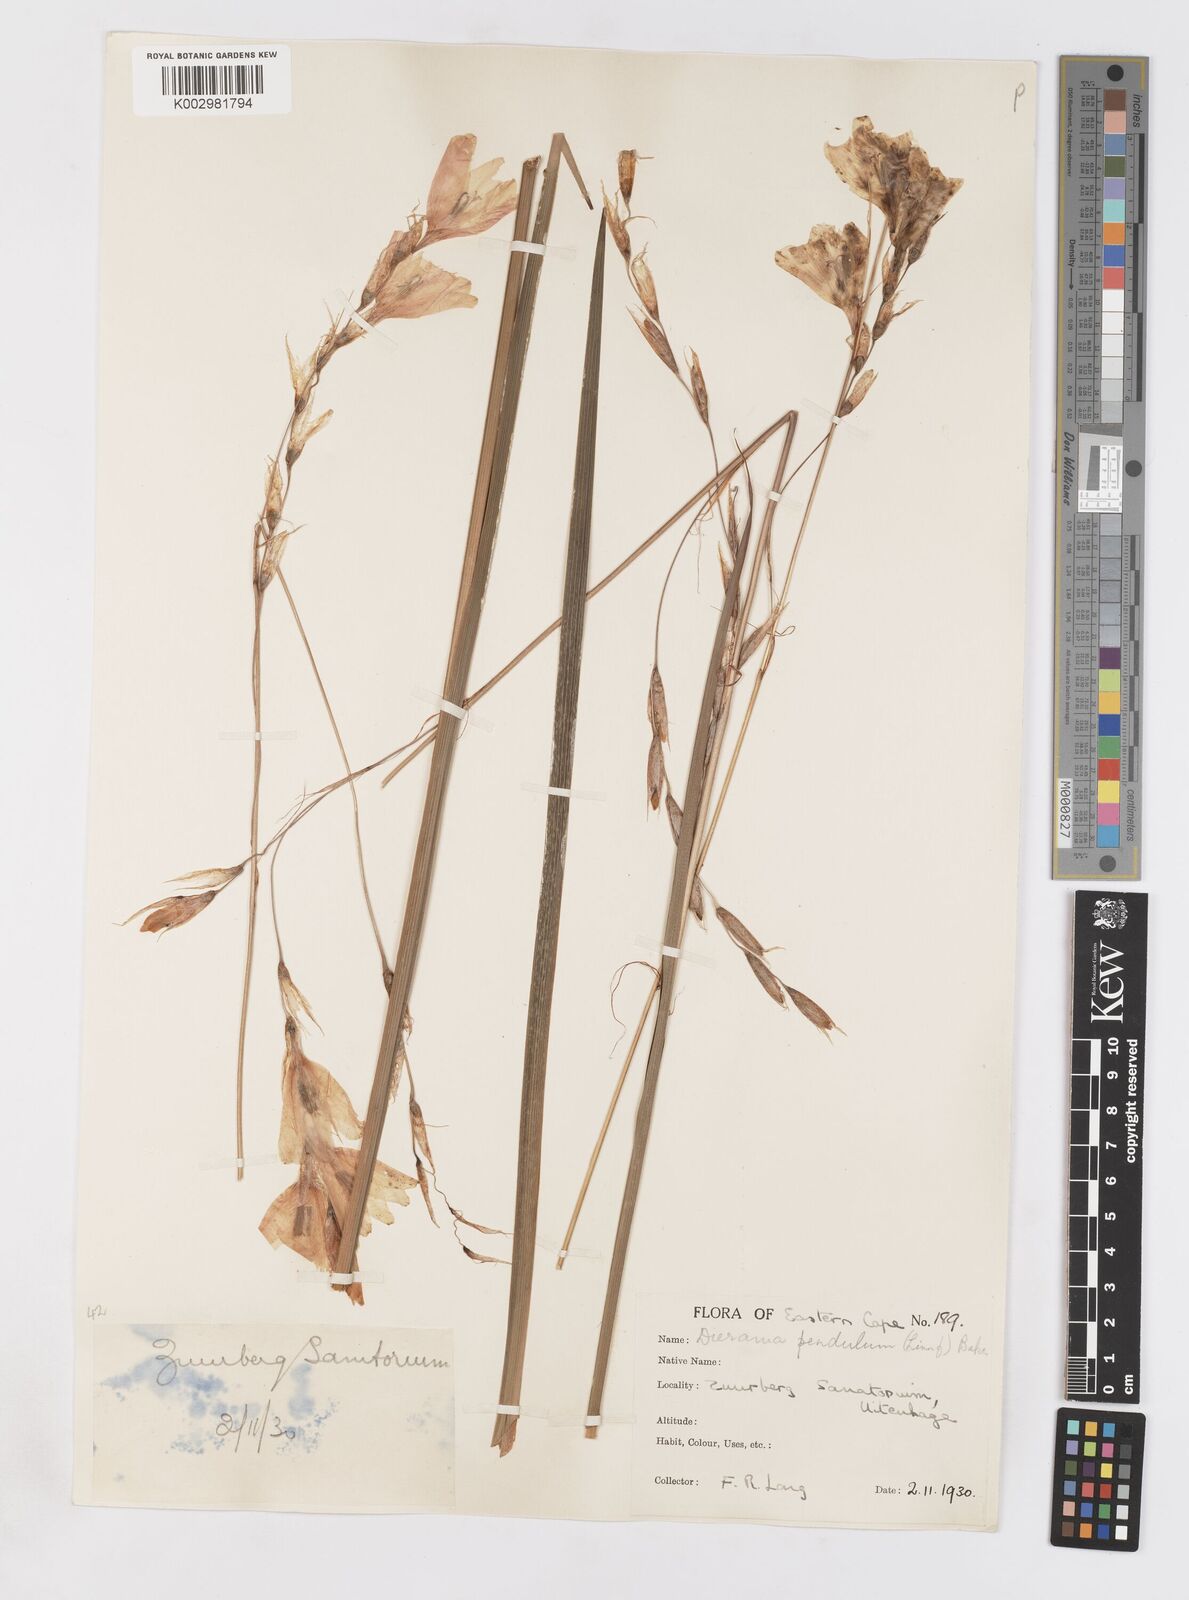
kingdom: Plantae
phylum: Tracheophyta
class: Liliopsida
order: Asparagales
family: Iridaceae
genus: Dierama
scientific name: Dierama pendulum
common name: Grassy-bell
